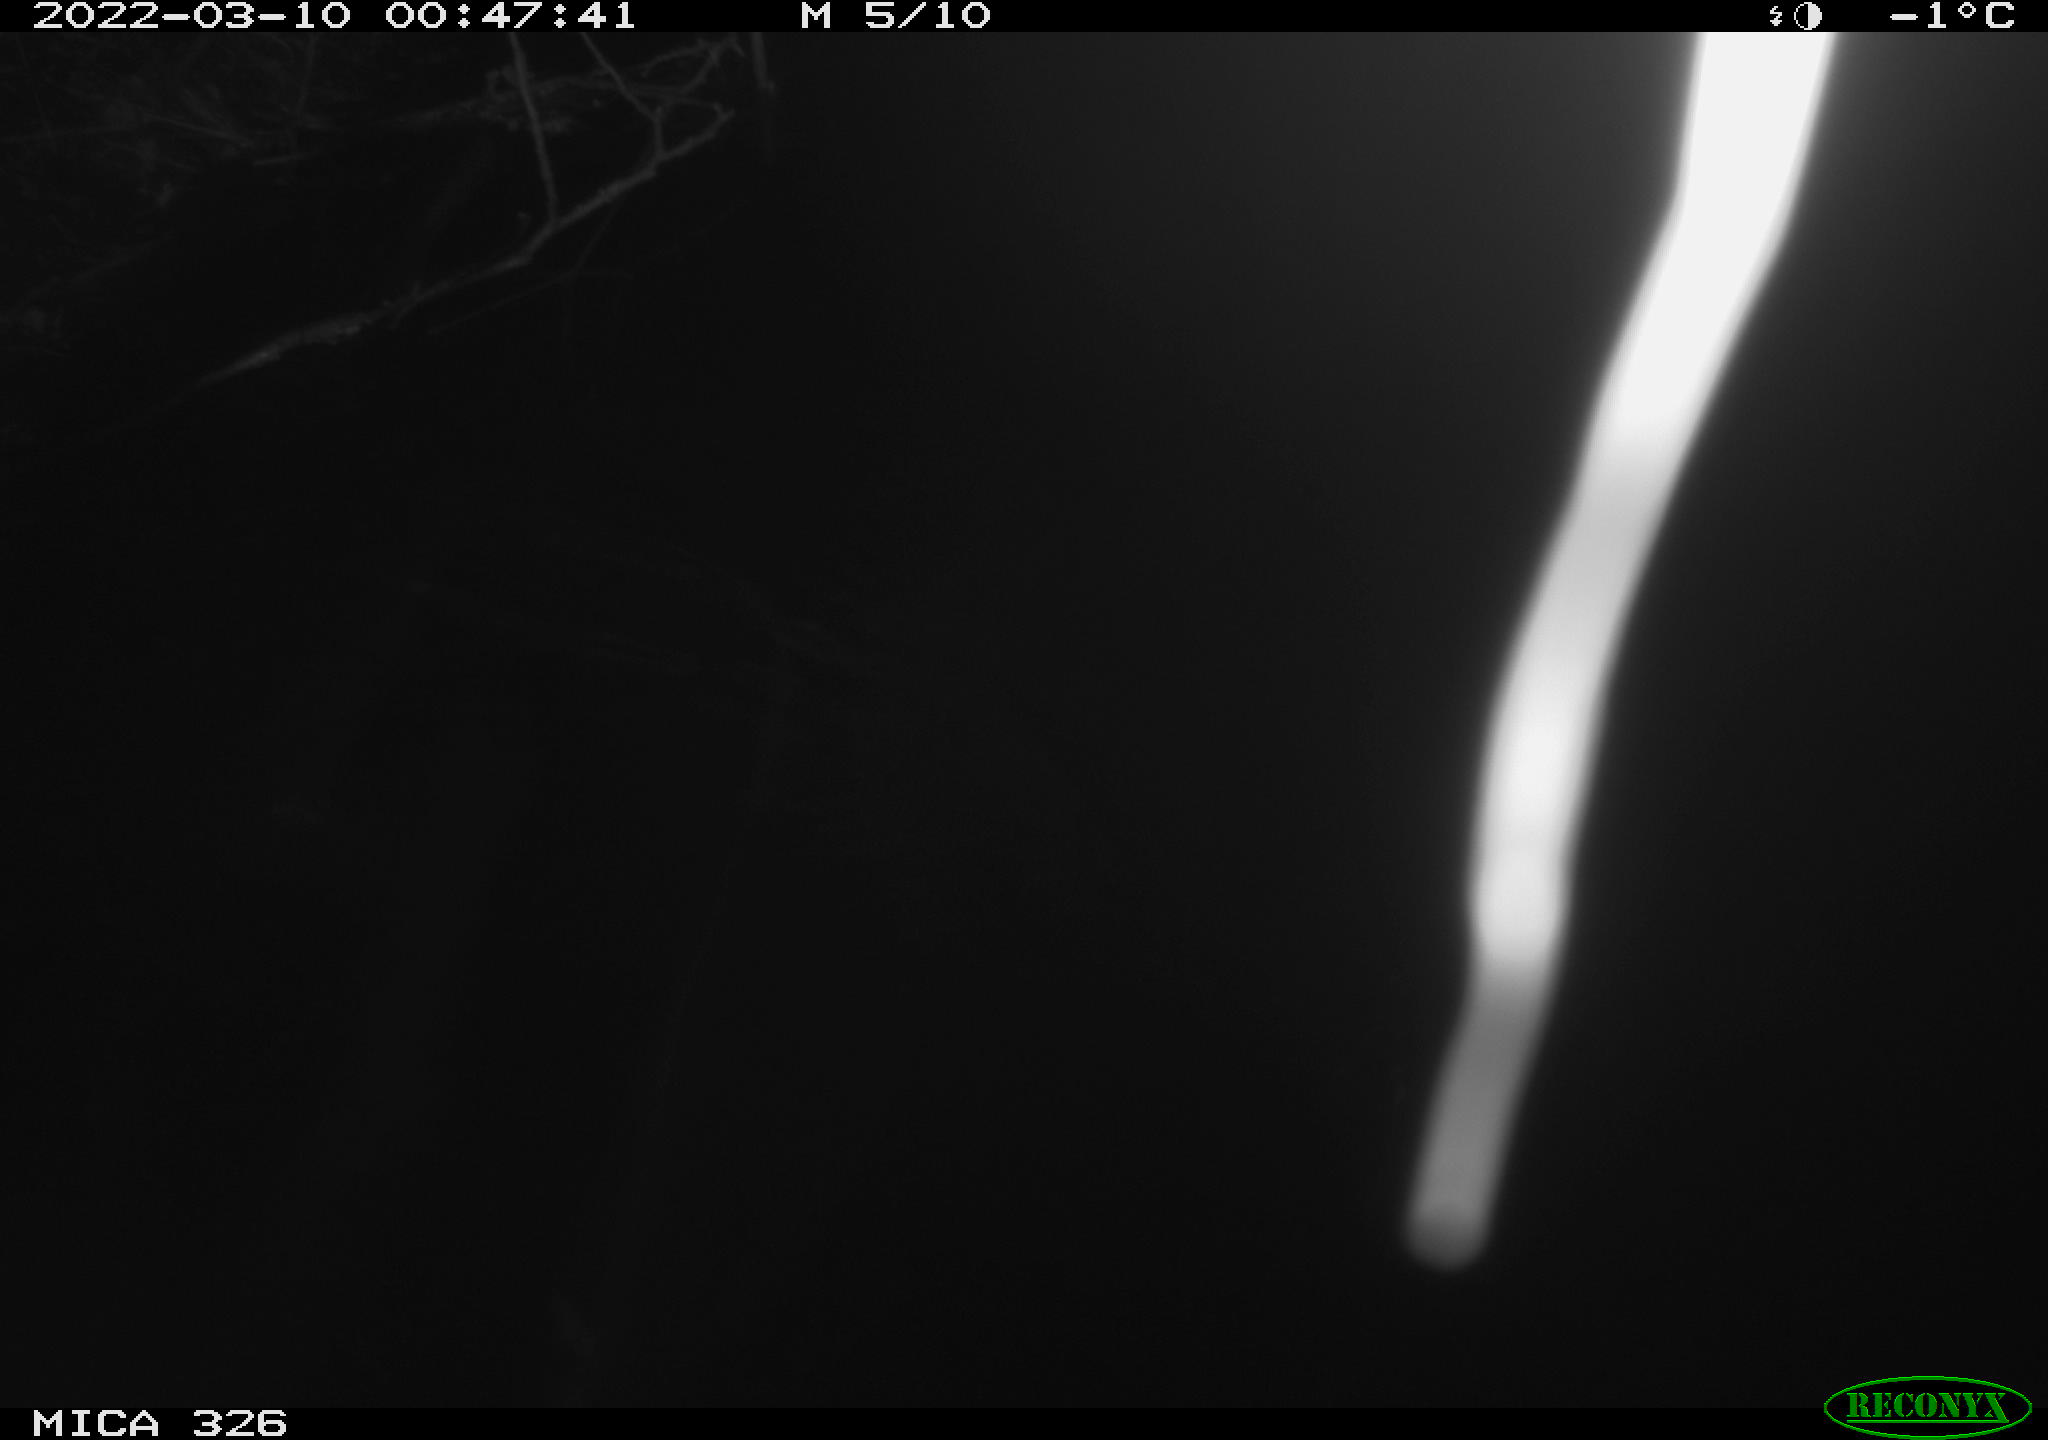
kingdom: Animalia
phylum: Chordata
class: Mammalia
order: Rodentia
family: Muridae
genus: Rattus
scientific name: Rattus norvegicus
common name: Brown rat
